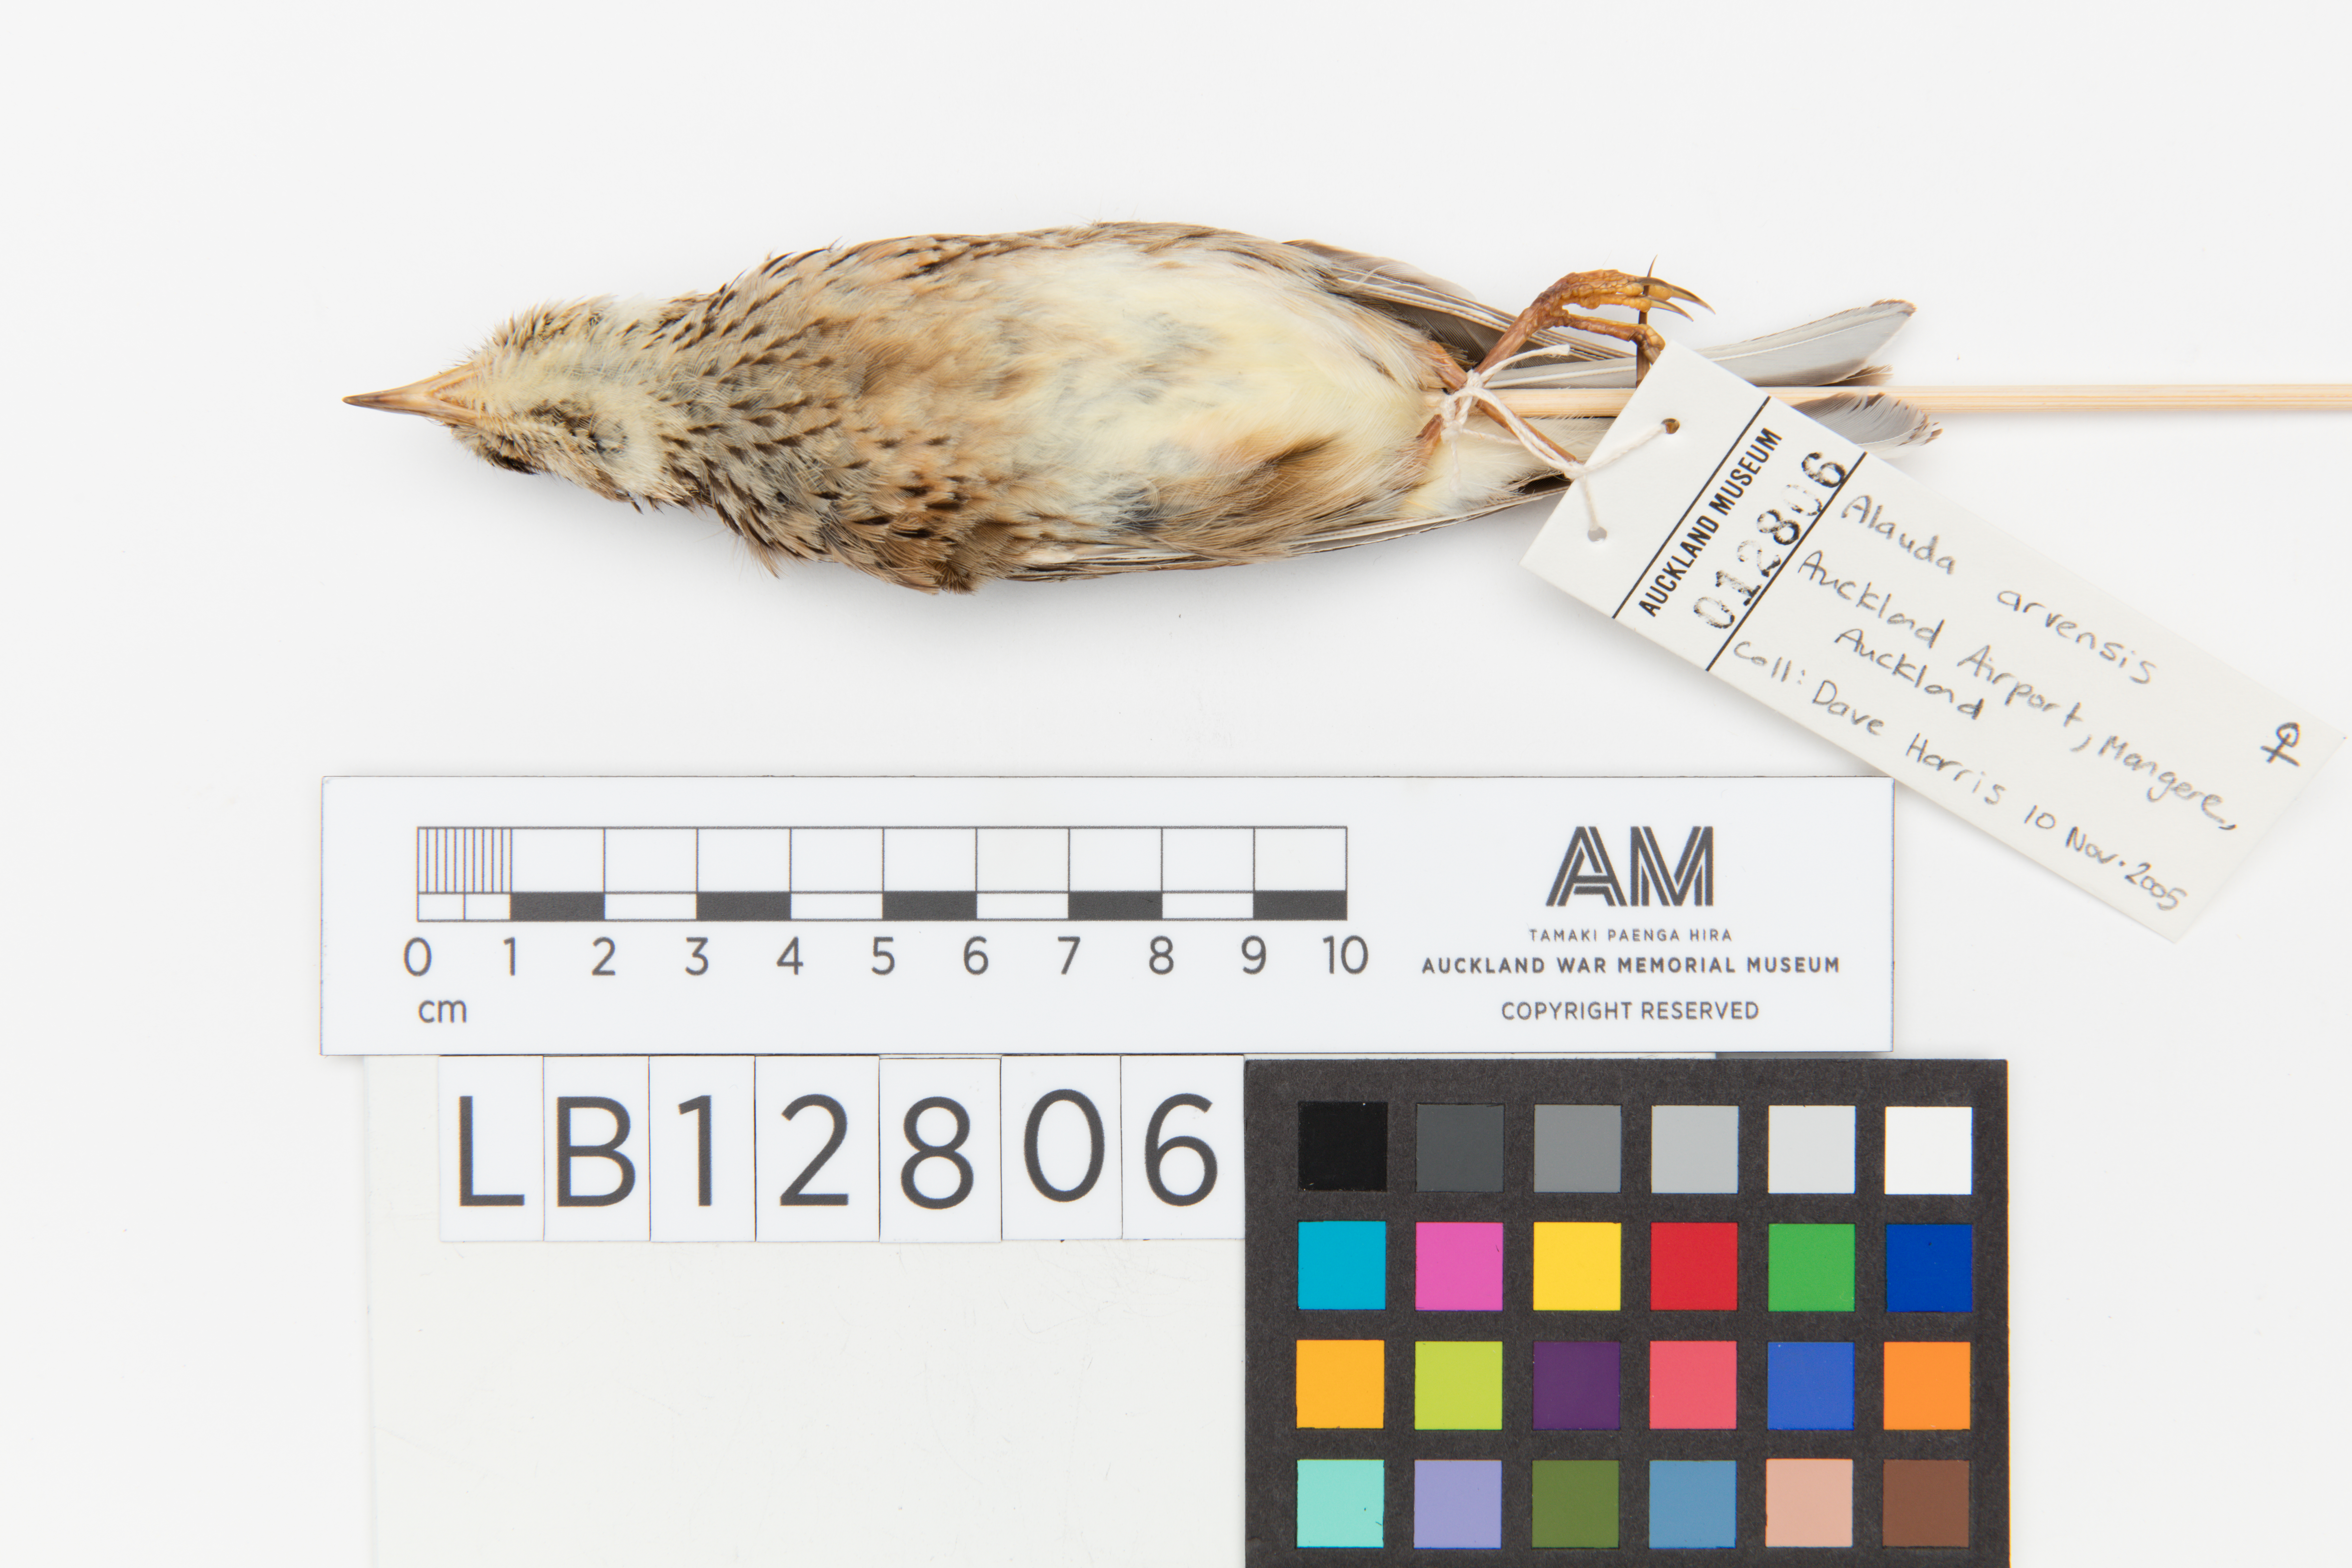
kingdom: Animalia
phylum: Chordata
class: Aves
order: Passeriformes
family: Alaudidae
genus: Alauda
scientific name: Alauda arvensis
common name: Eurasian skylark
